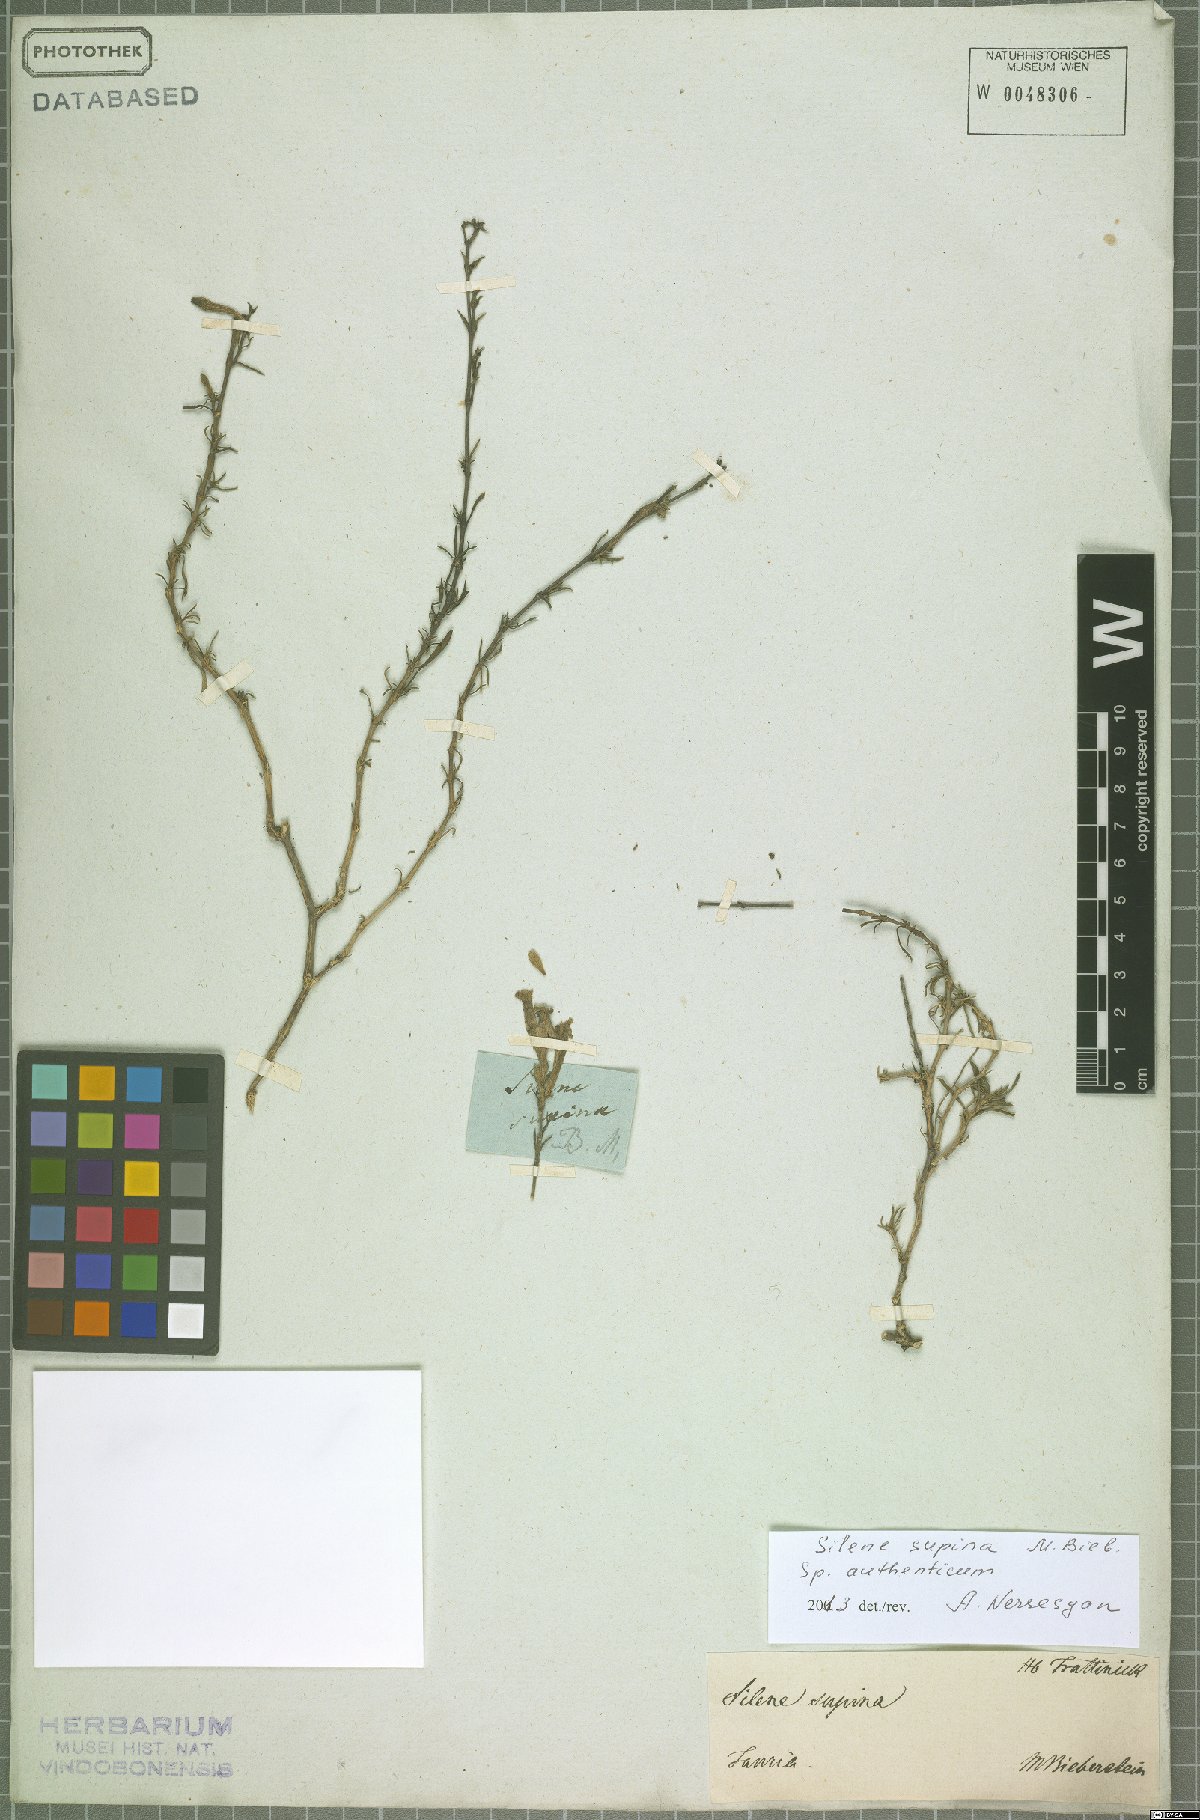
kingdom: Plantae
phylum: Tracheophyta
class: Magnoliopsida
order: Caryophyllales
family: Caryophyllaceae
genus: Silene
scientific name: Silene supina
